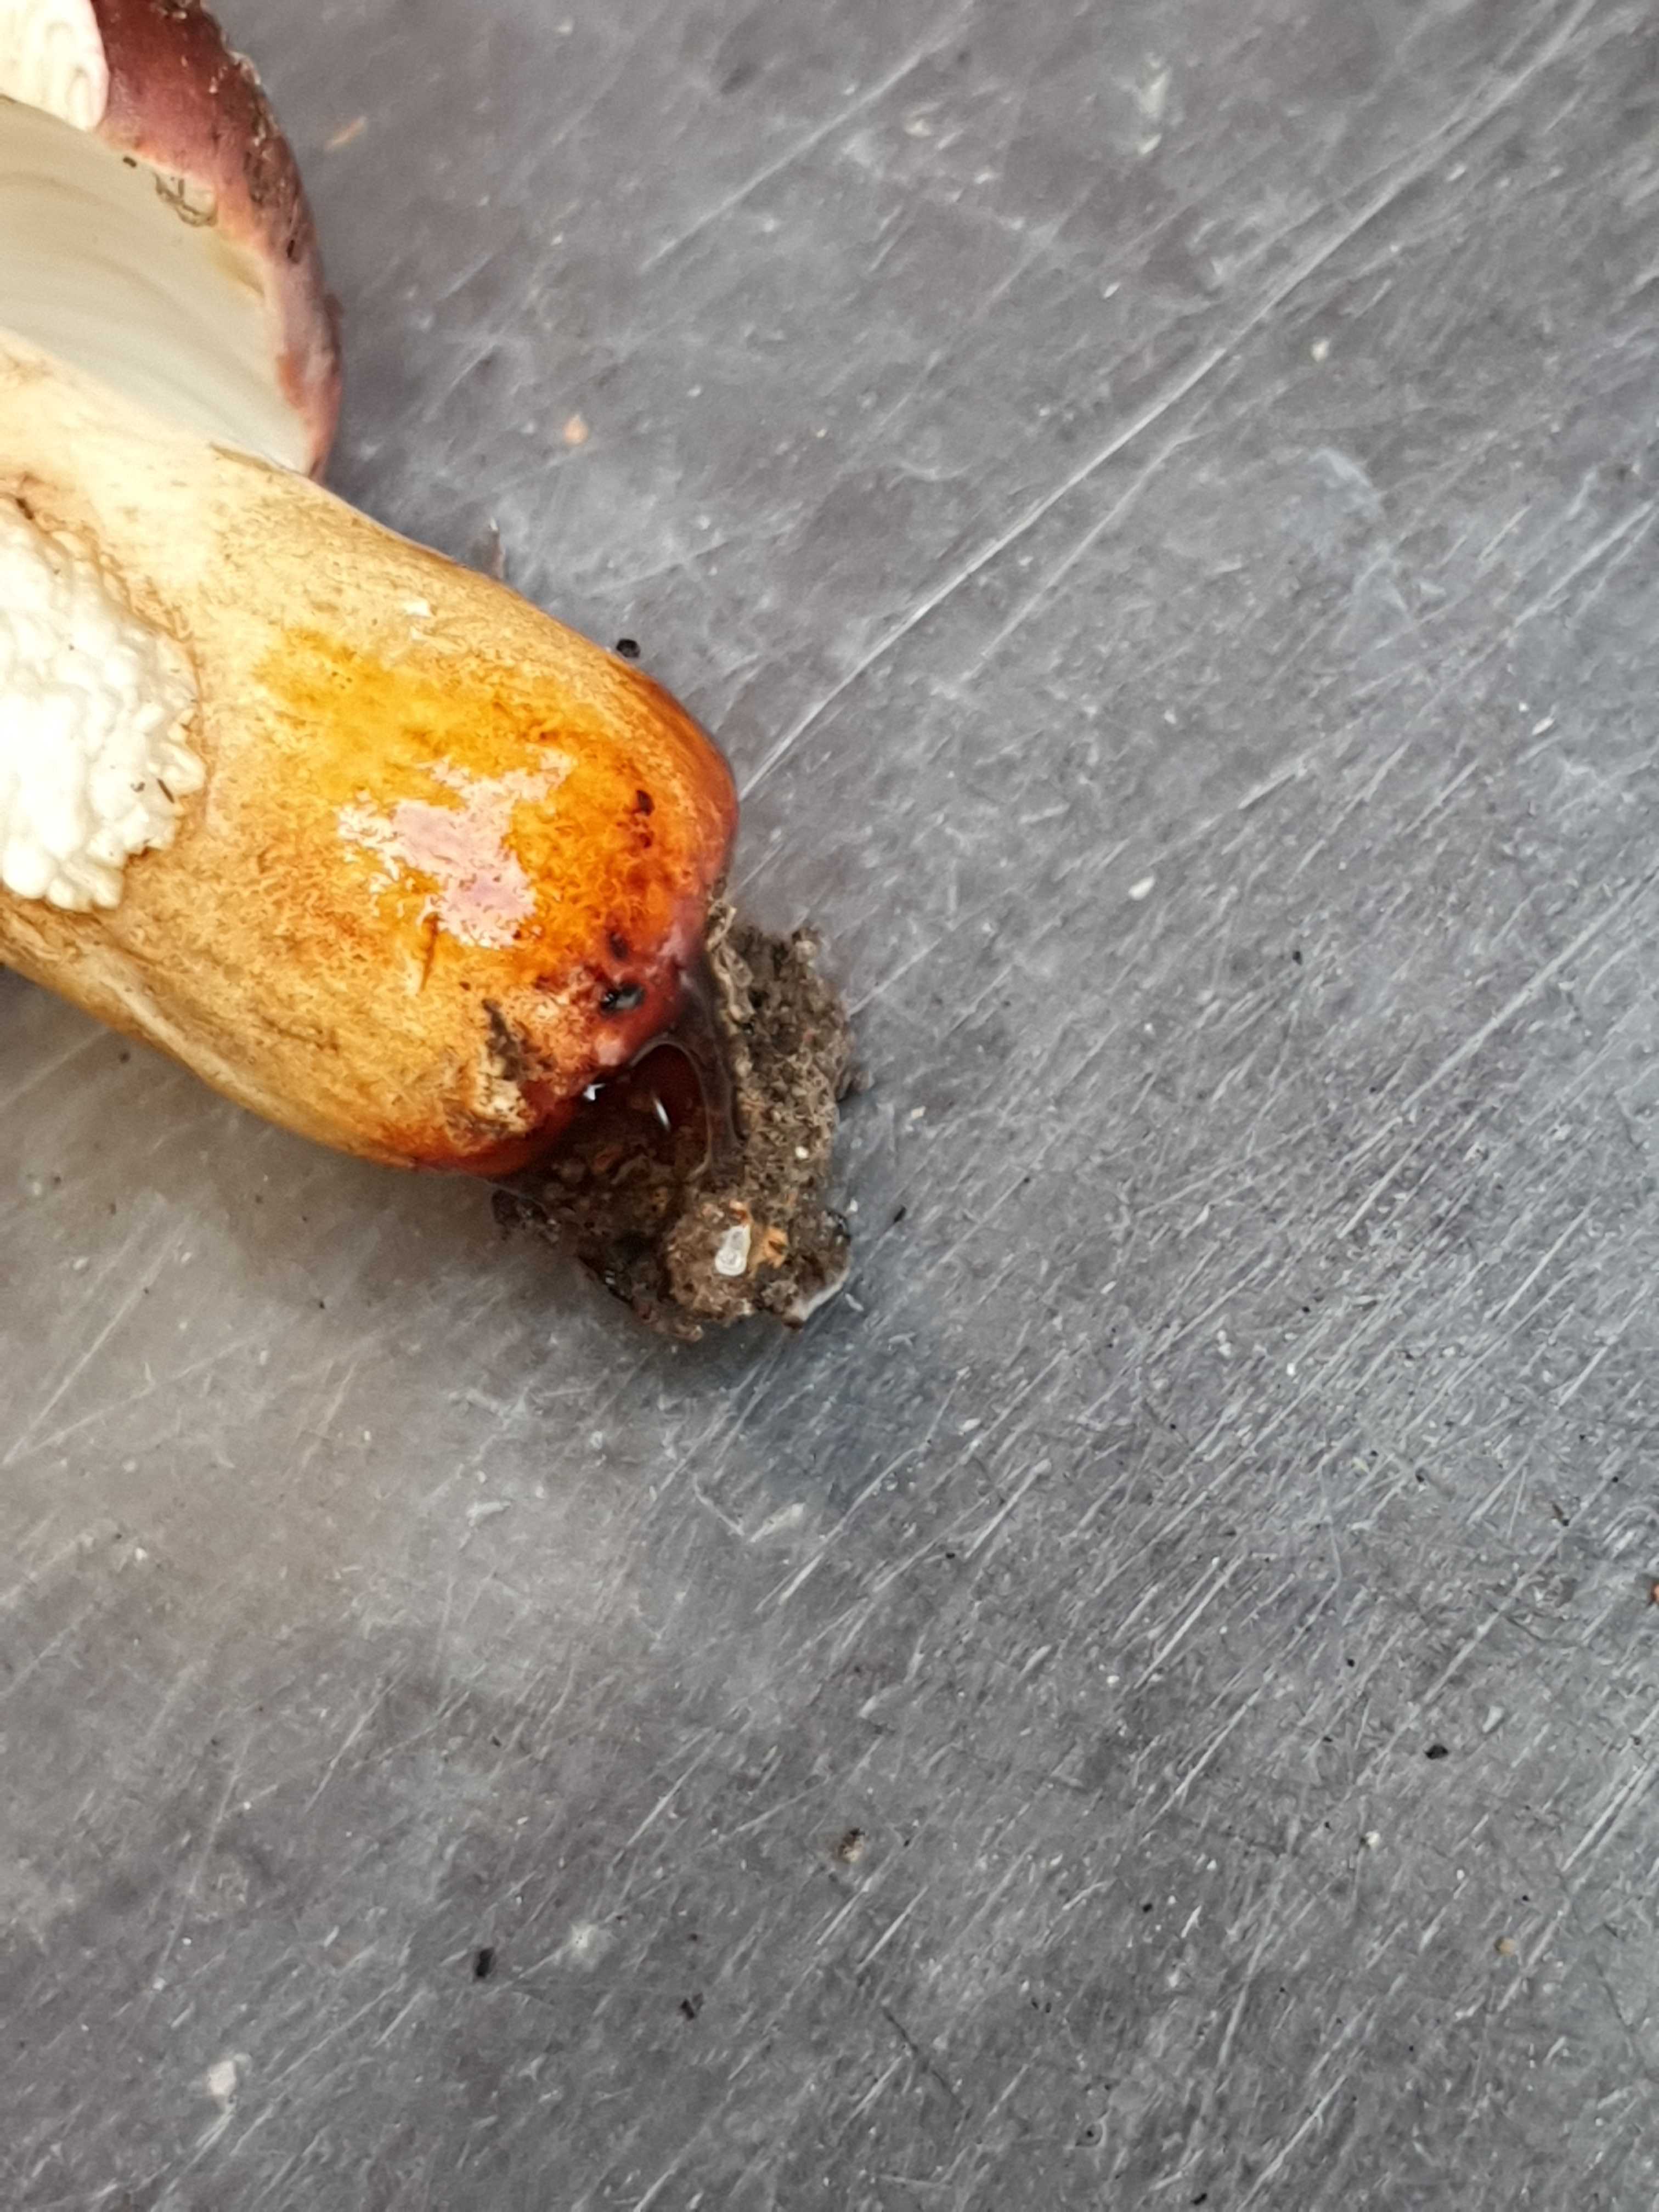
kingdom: Fungi
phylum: Basidiomycota
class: Agaricomycetes
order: Russulales
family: Russulaceae
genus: Russula
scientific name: Russula viscida
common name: knippe-skørhat
